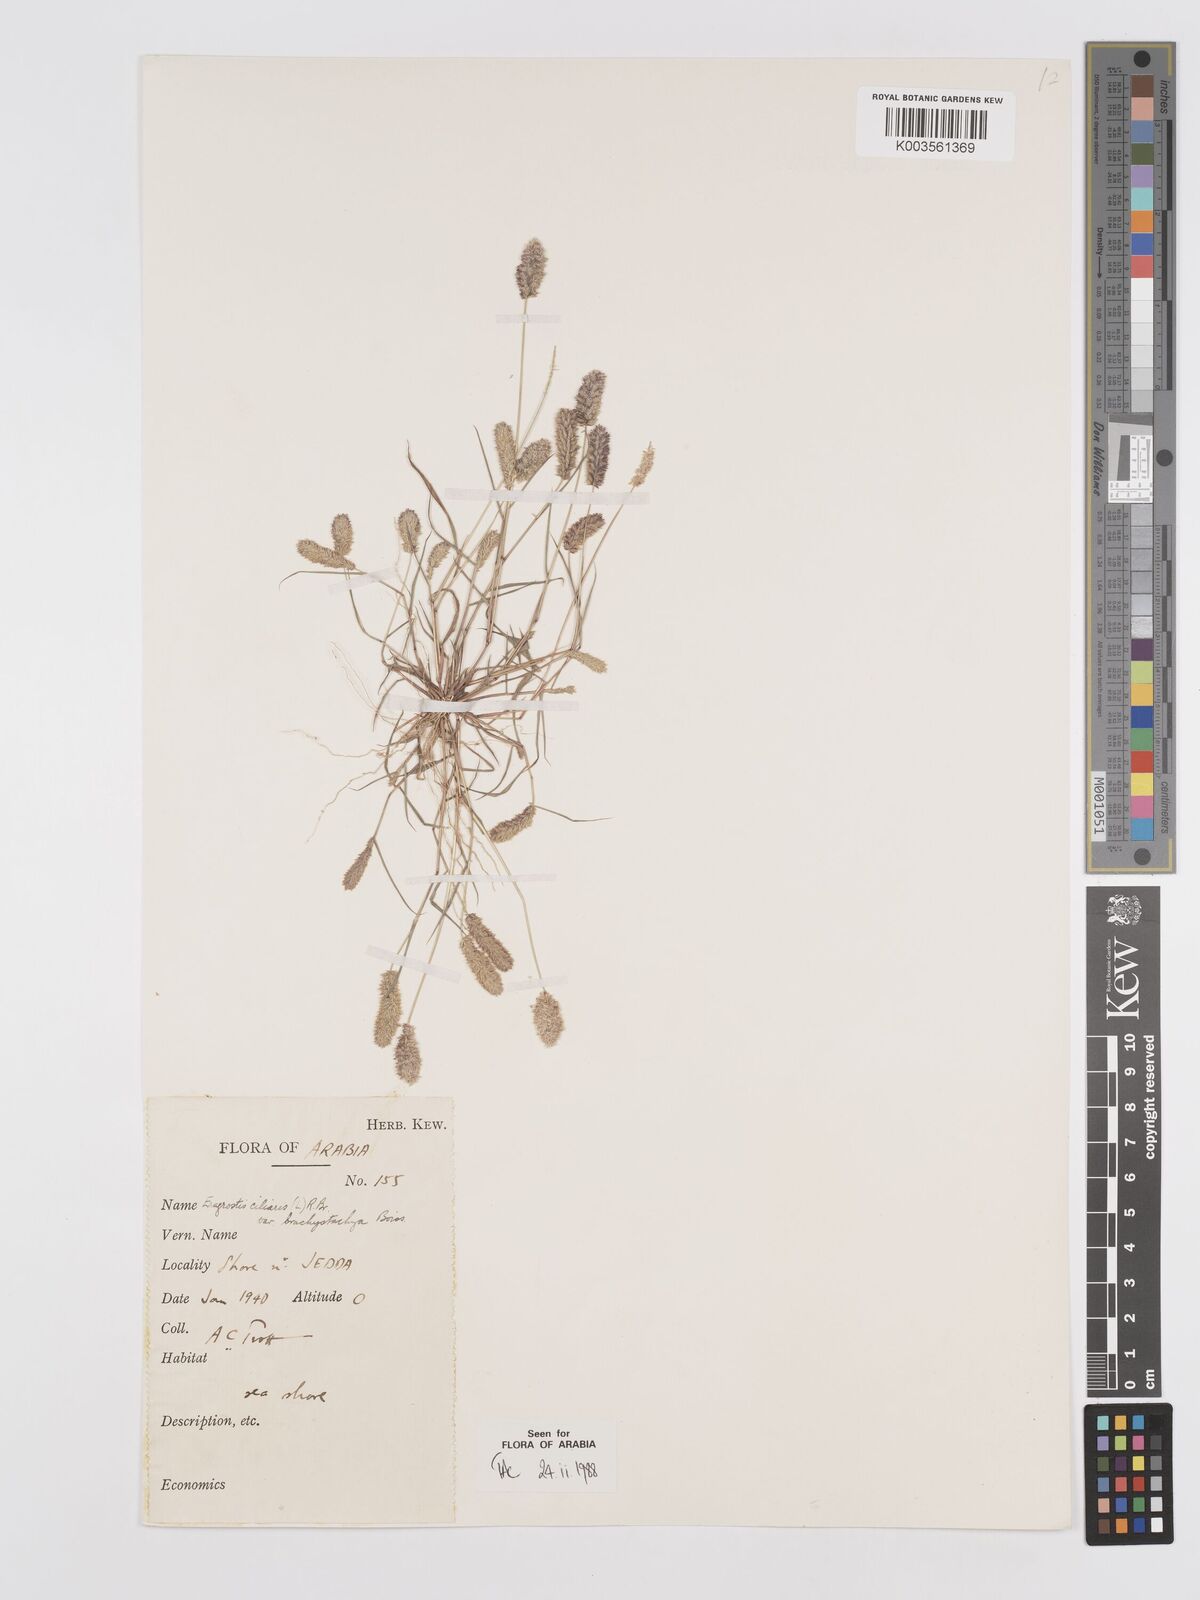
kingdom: Plantae
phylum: Tracheophyta
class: Liliopsida
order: Poales
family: Poaceae
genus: Eragrostis
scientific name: Eragrostis ciliaris
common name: Gophertail lovegrass
